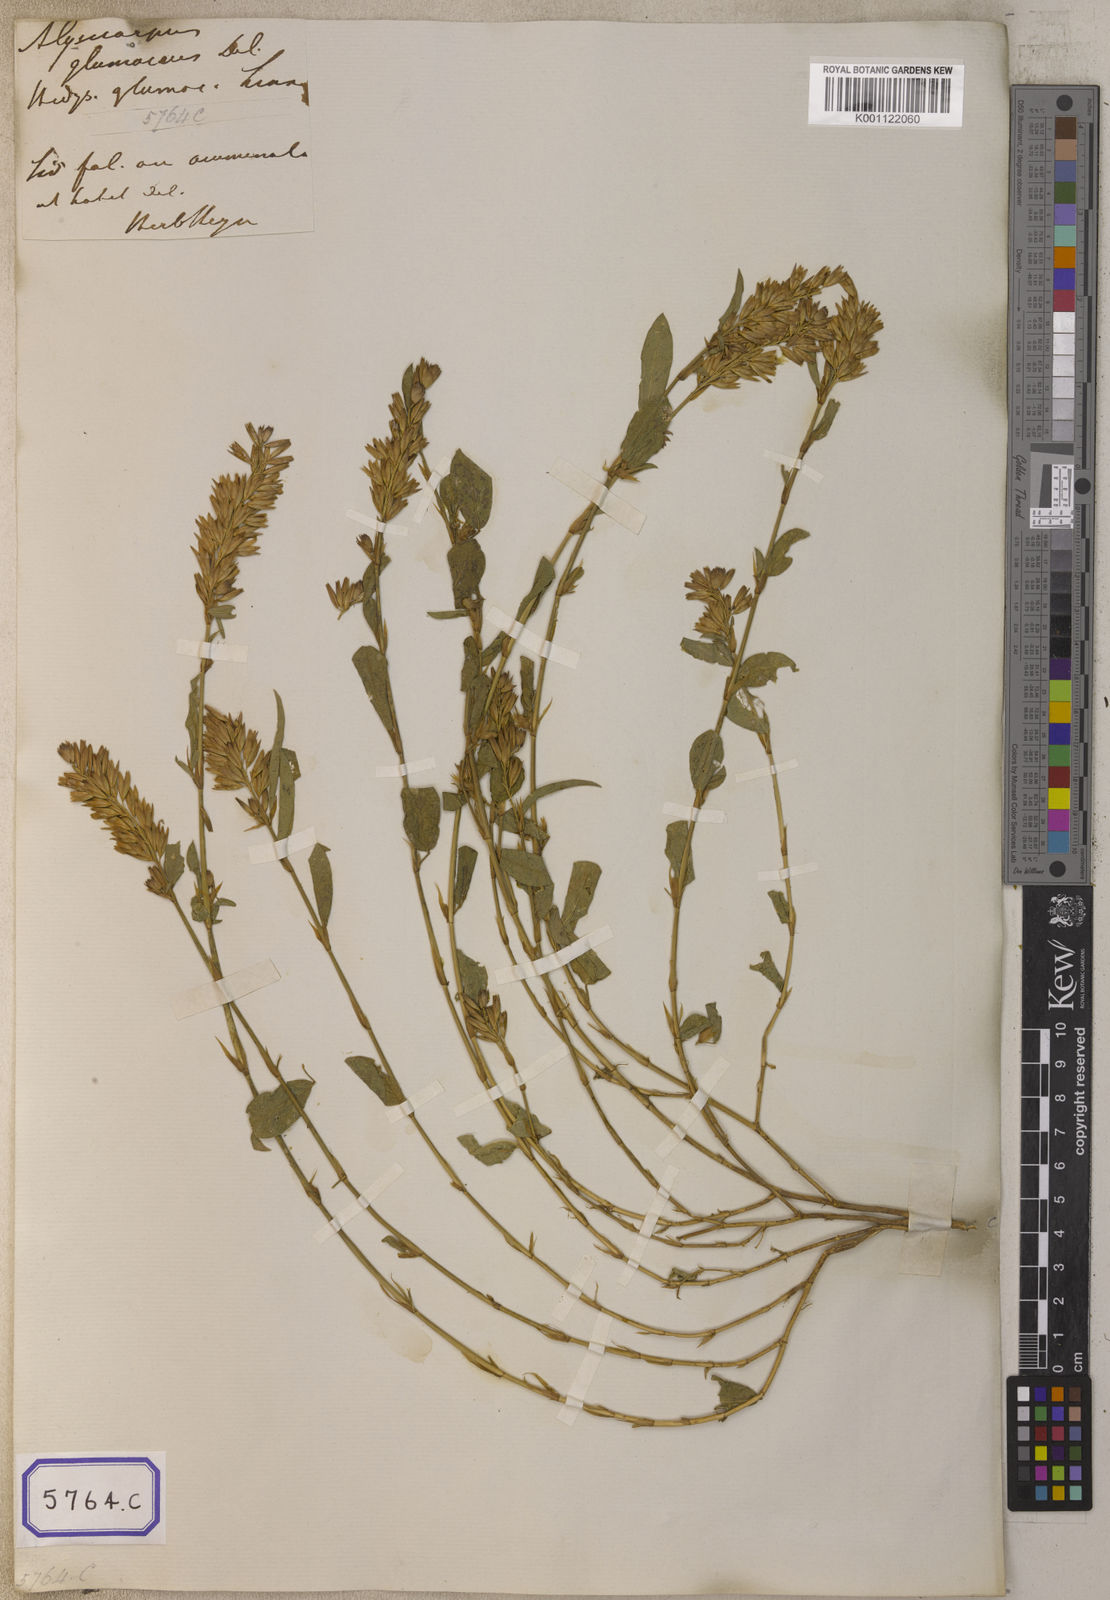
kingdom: Plantae
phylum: Tracheophyta
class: Magnoliopsida
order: Fabales
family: Fabaceae
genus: Alysicarpus
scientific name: Alysicarpus glumaceus
